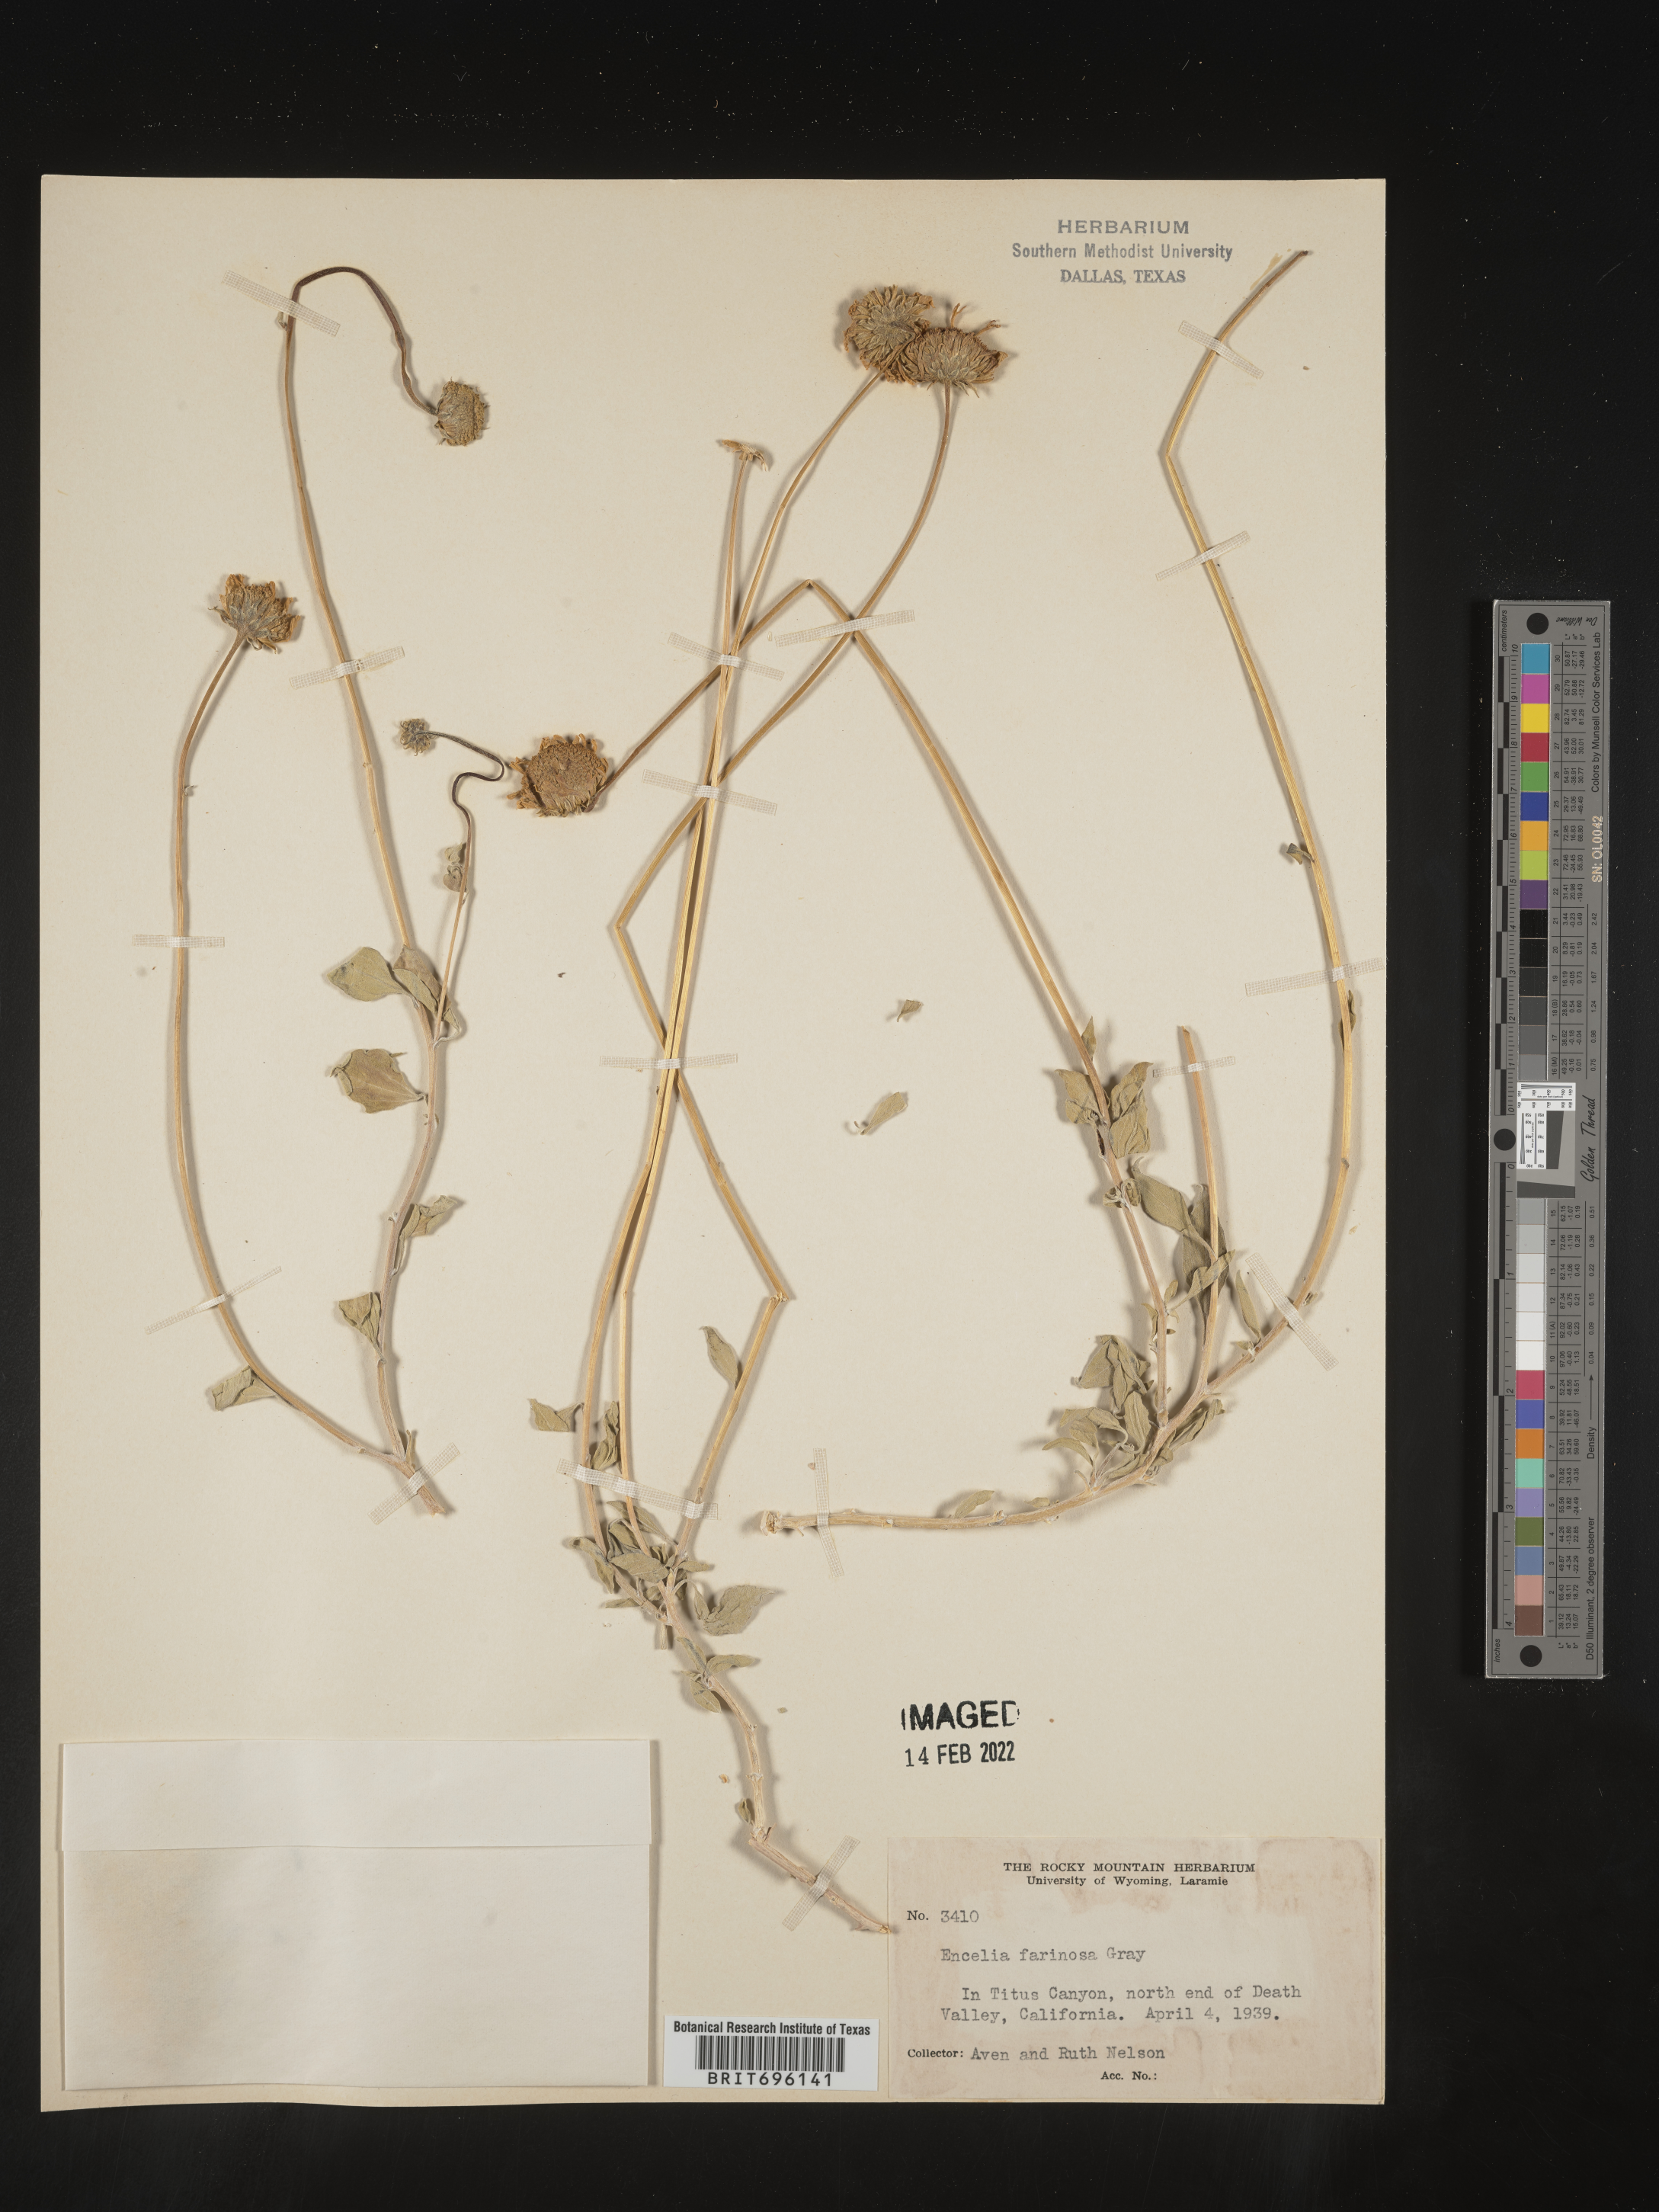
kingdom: Plantae
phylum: Tracheophyta
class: Magnoliopsida
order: Asterales
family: Asteraceae
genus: Encelia
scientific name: Encelia farinosa
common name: Brittlebush
